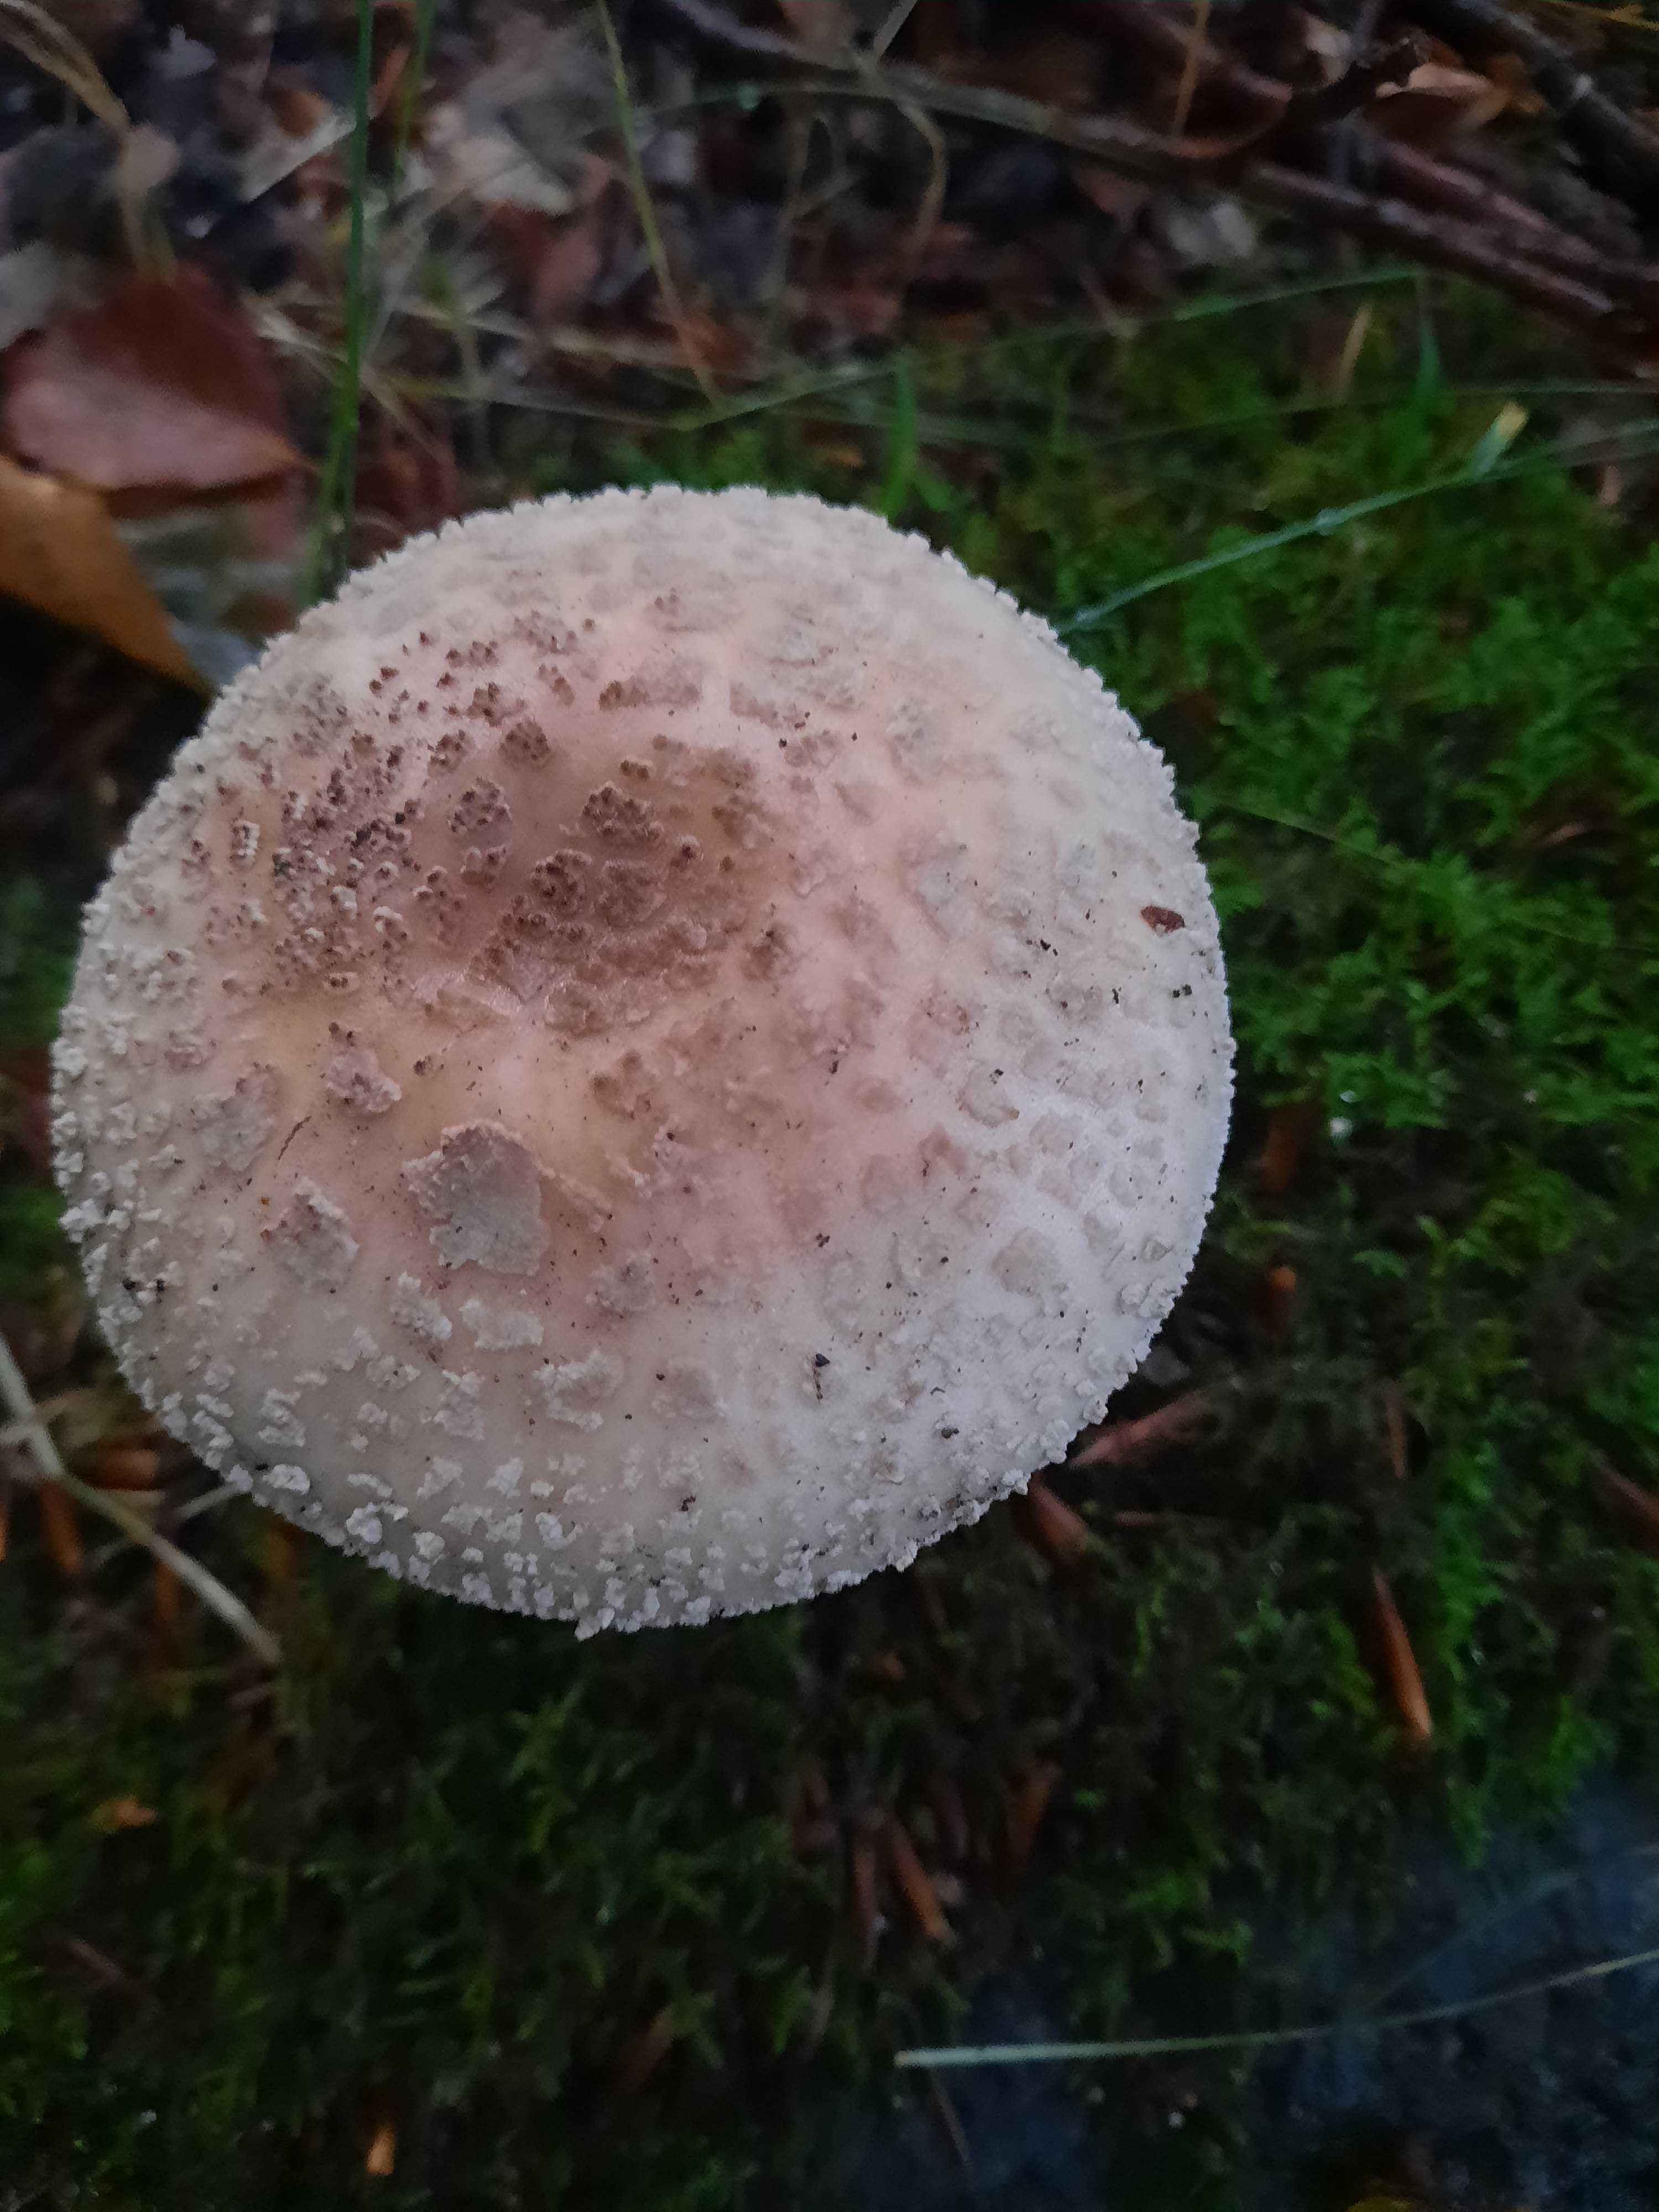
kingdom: Fungi
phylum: Basidiomycota
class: Agaricomycetes
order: Agaricales
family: Amanitaceae
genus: Amanita
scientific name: Amanita rubescens
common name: rødmende fluesvamp
